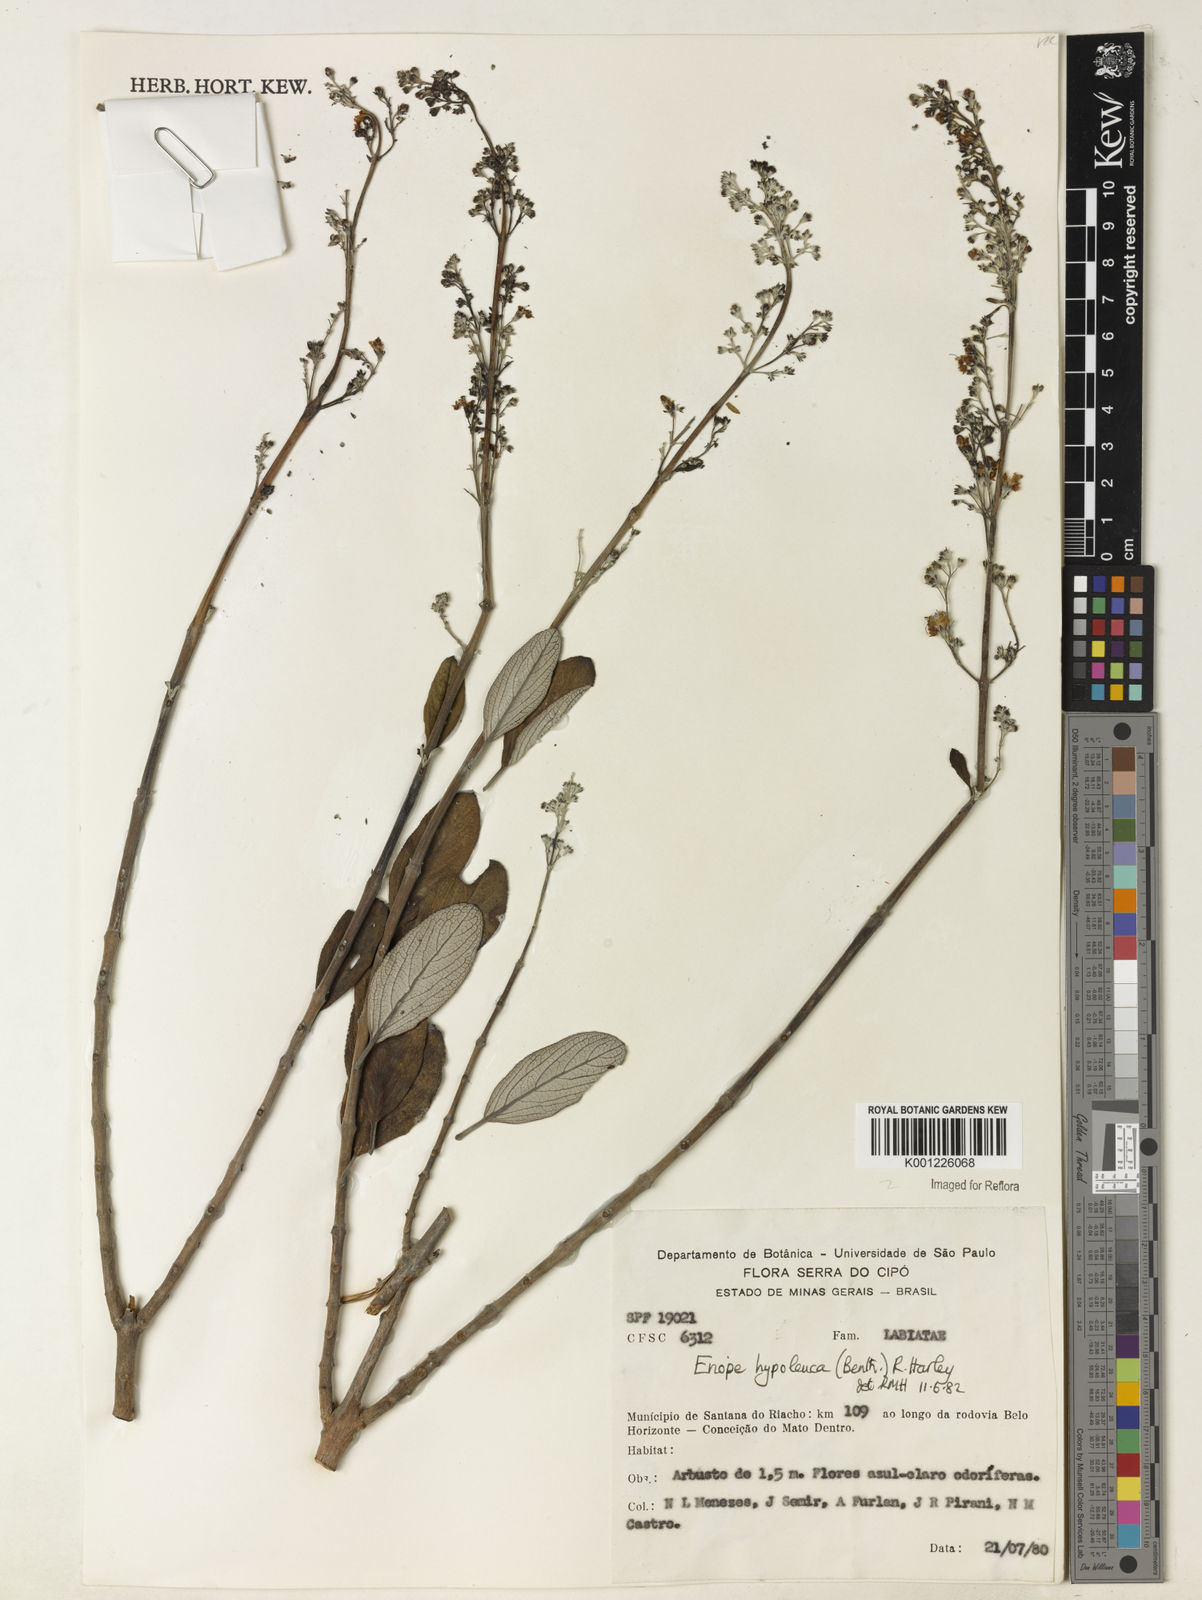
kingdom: Plantae
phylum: Tracheophyta
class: Magnoliopsida
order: Lamiales
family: Lamiaceae
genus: Eriope
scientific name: Eriope hypoleuca
